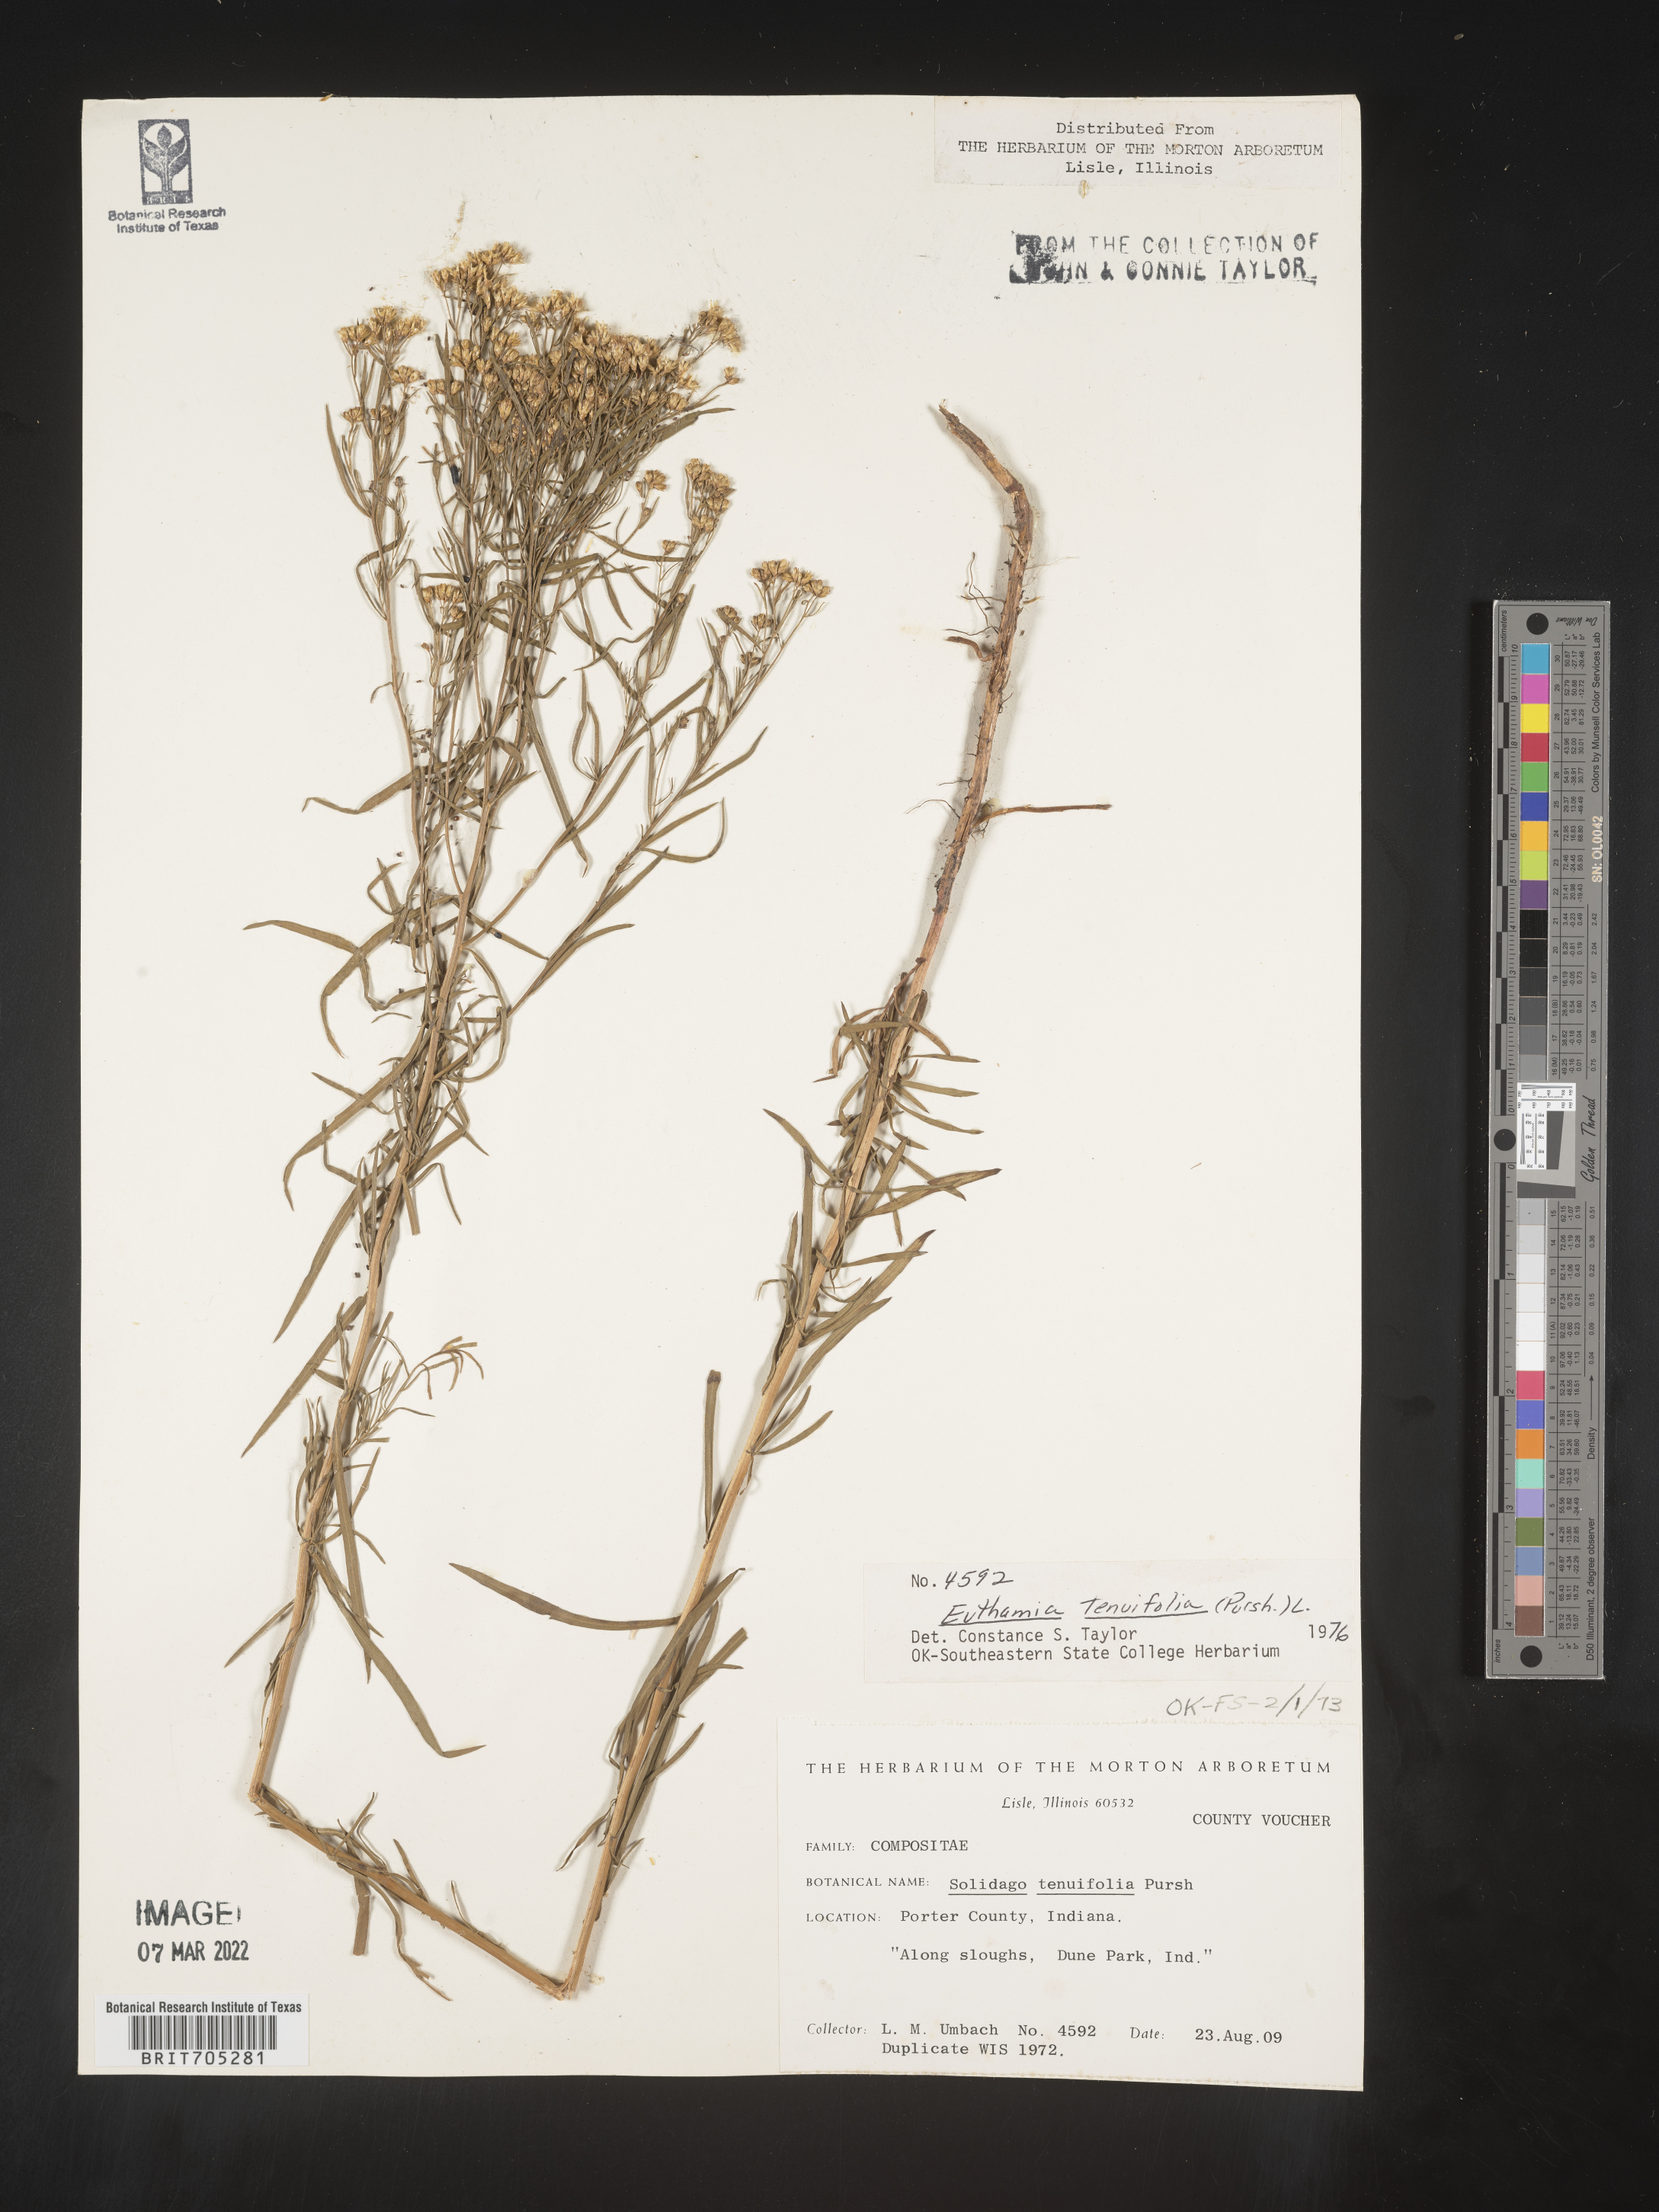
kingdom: Plantae
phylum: Tracheophyta
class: Magnoliopsida
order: Asterales
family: Asteraceae
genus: Euthamia
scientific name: Euthamia gymnospermoides
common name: Great plains goldentop
